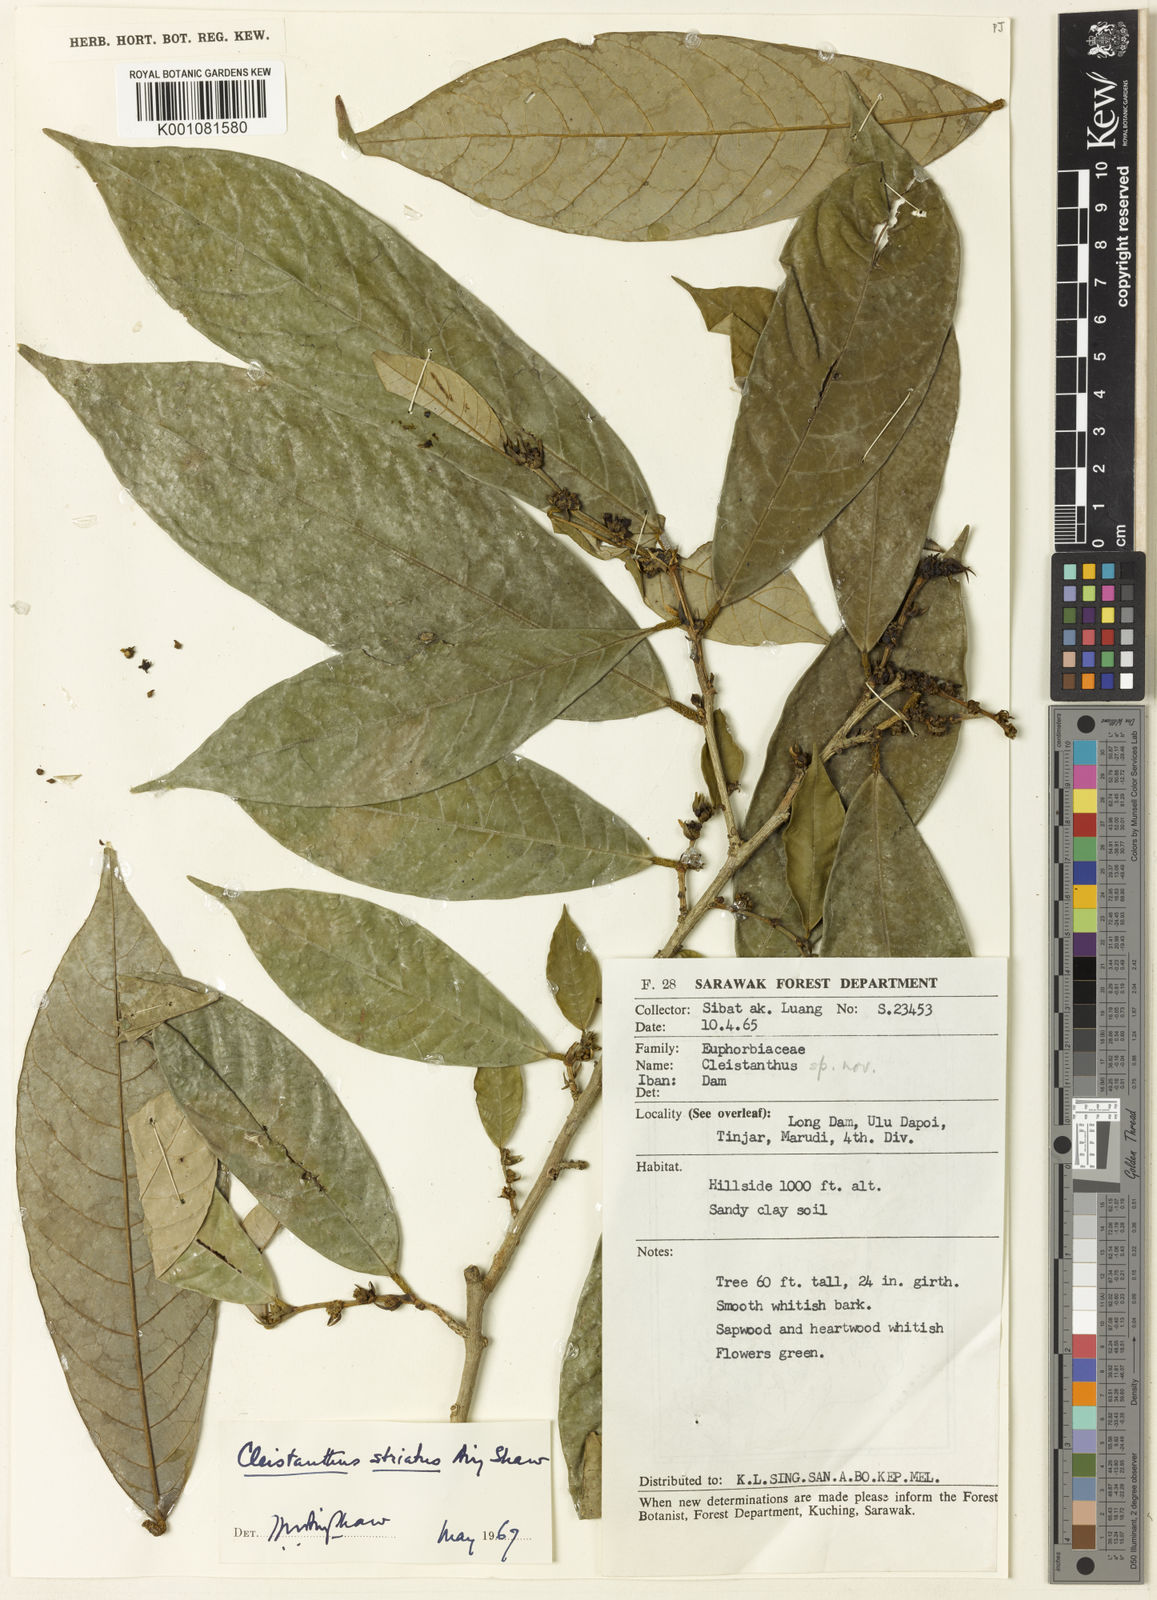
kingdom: Plantae
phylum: Tracheophyta
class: Magnoliopsida
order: Malpighiales
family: Phyllanthaceae
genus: Cleistanthus
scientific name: Cleistanthus striatus
